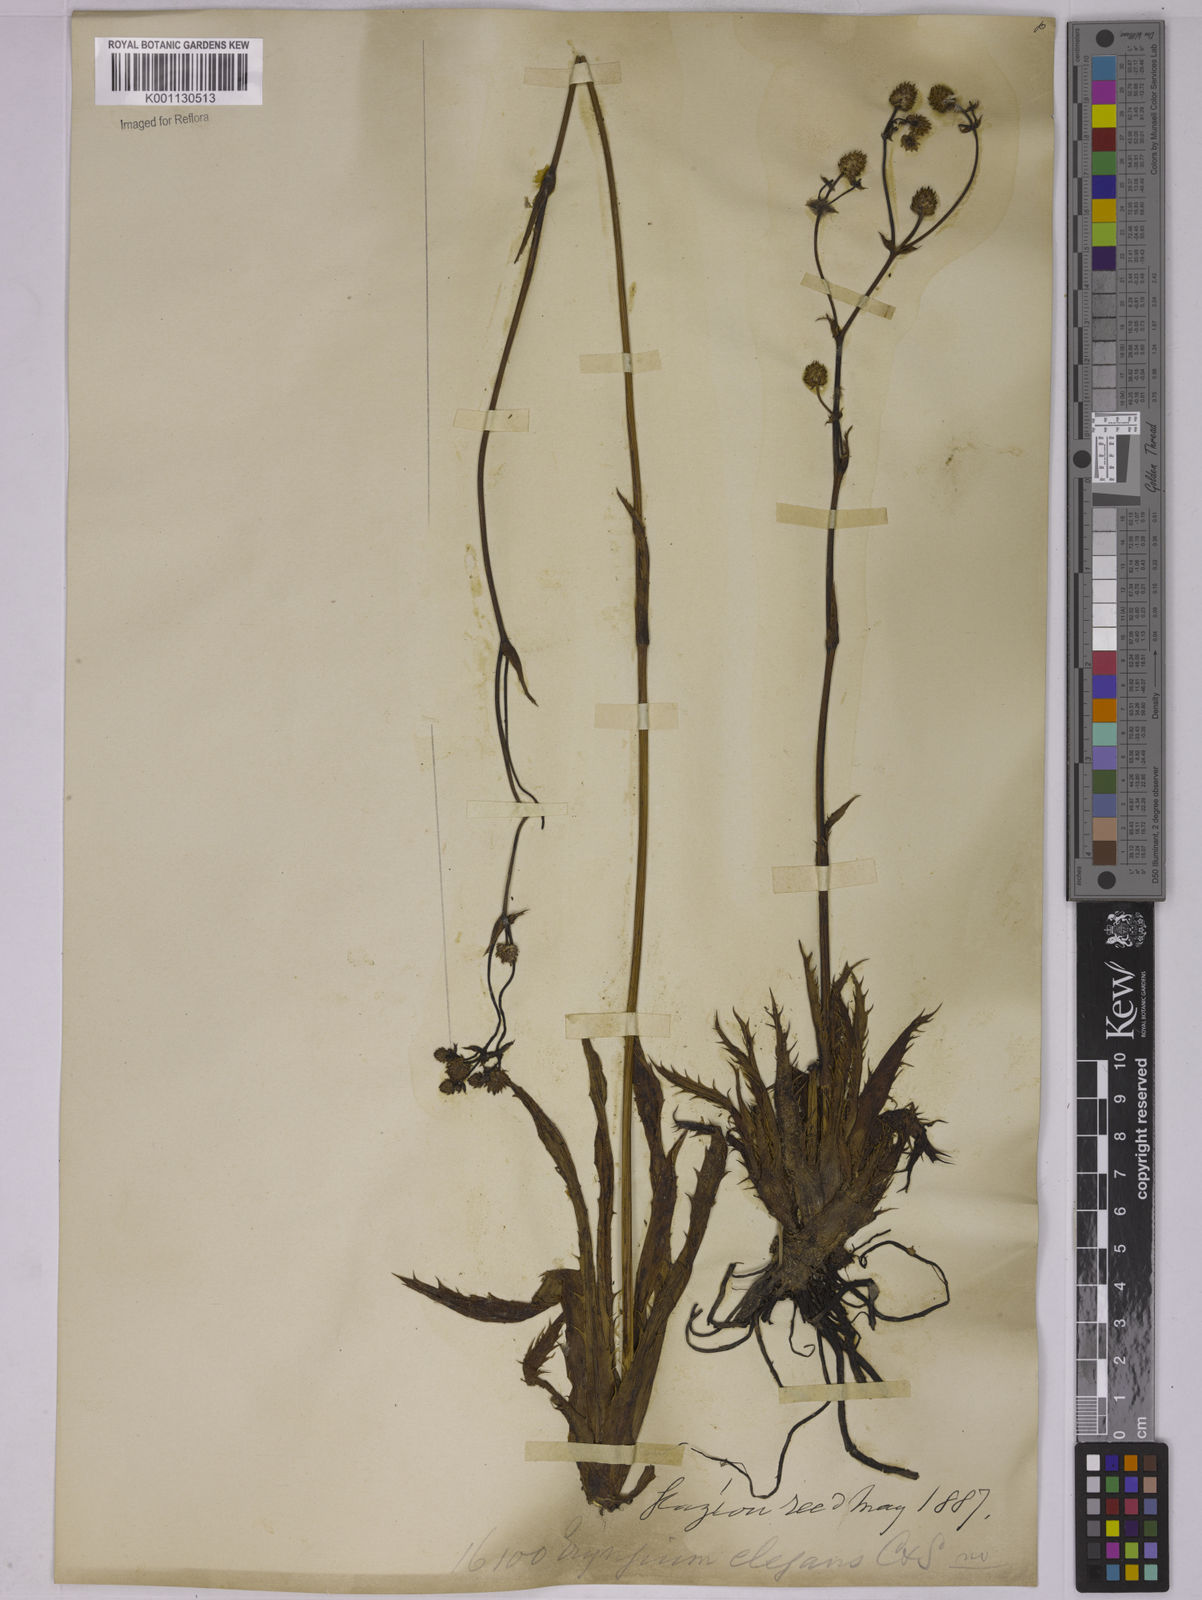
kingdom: Plantae
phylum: Tracheophyta
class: Magnoliopsida
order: Apiales
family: Apiaceae
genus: Eryngium
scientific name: Eryngium elegans
